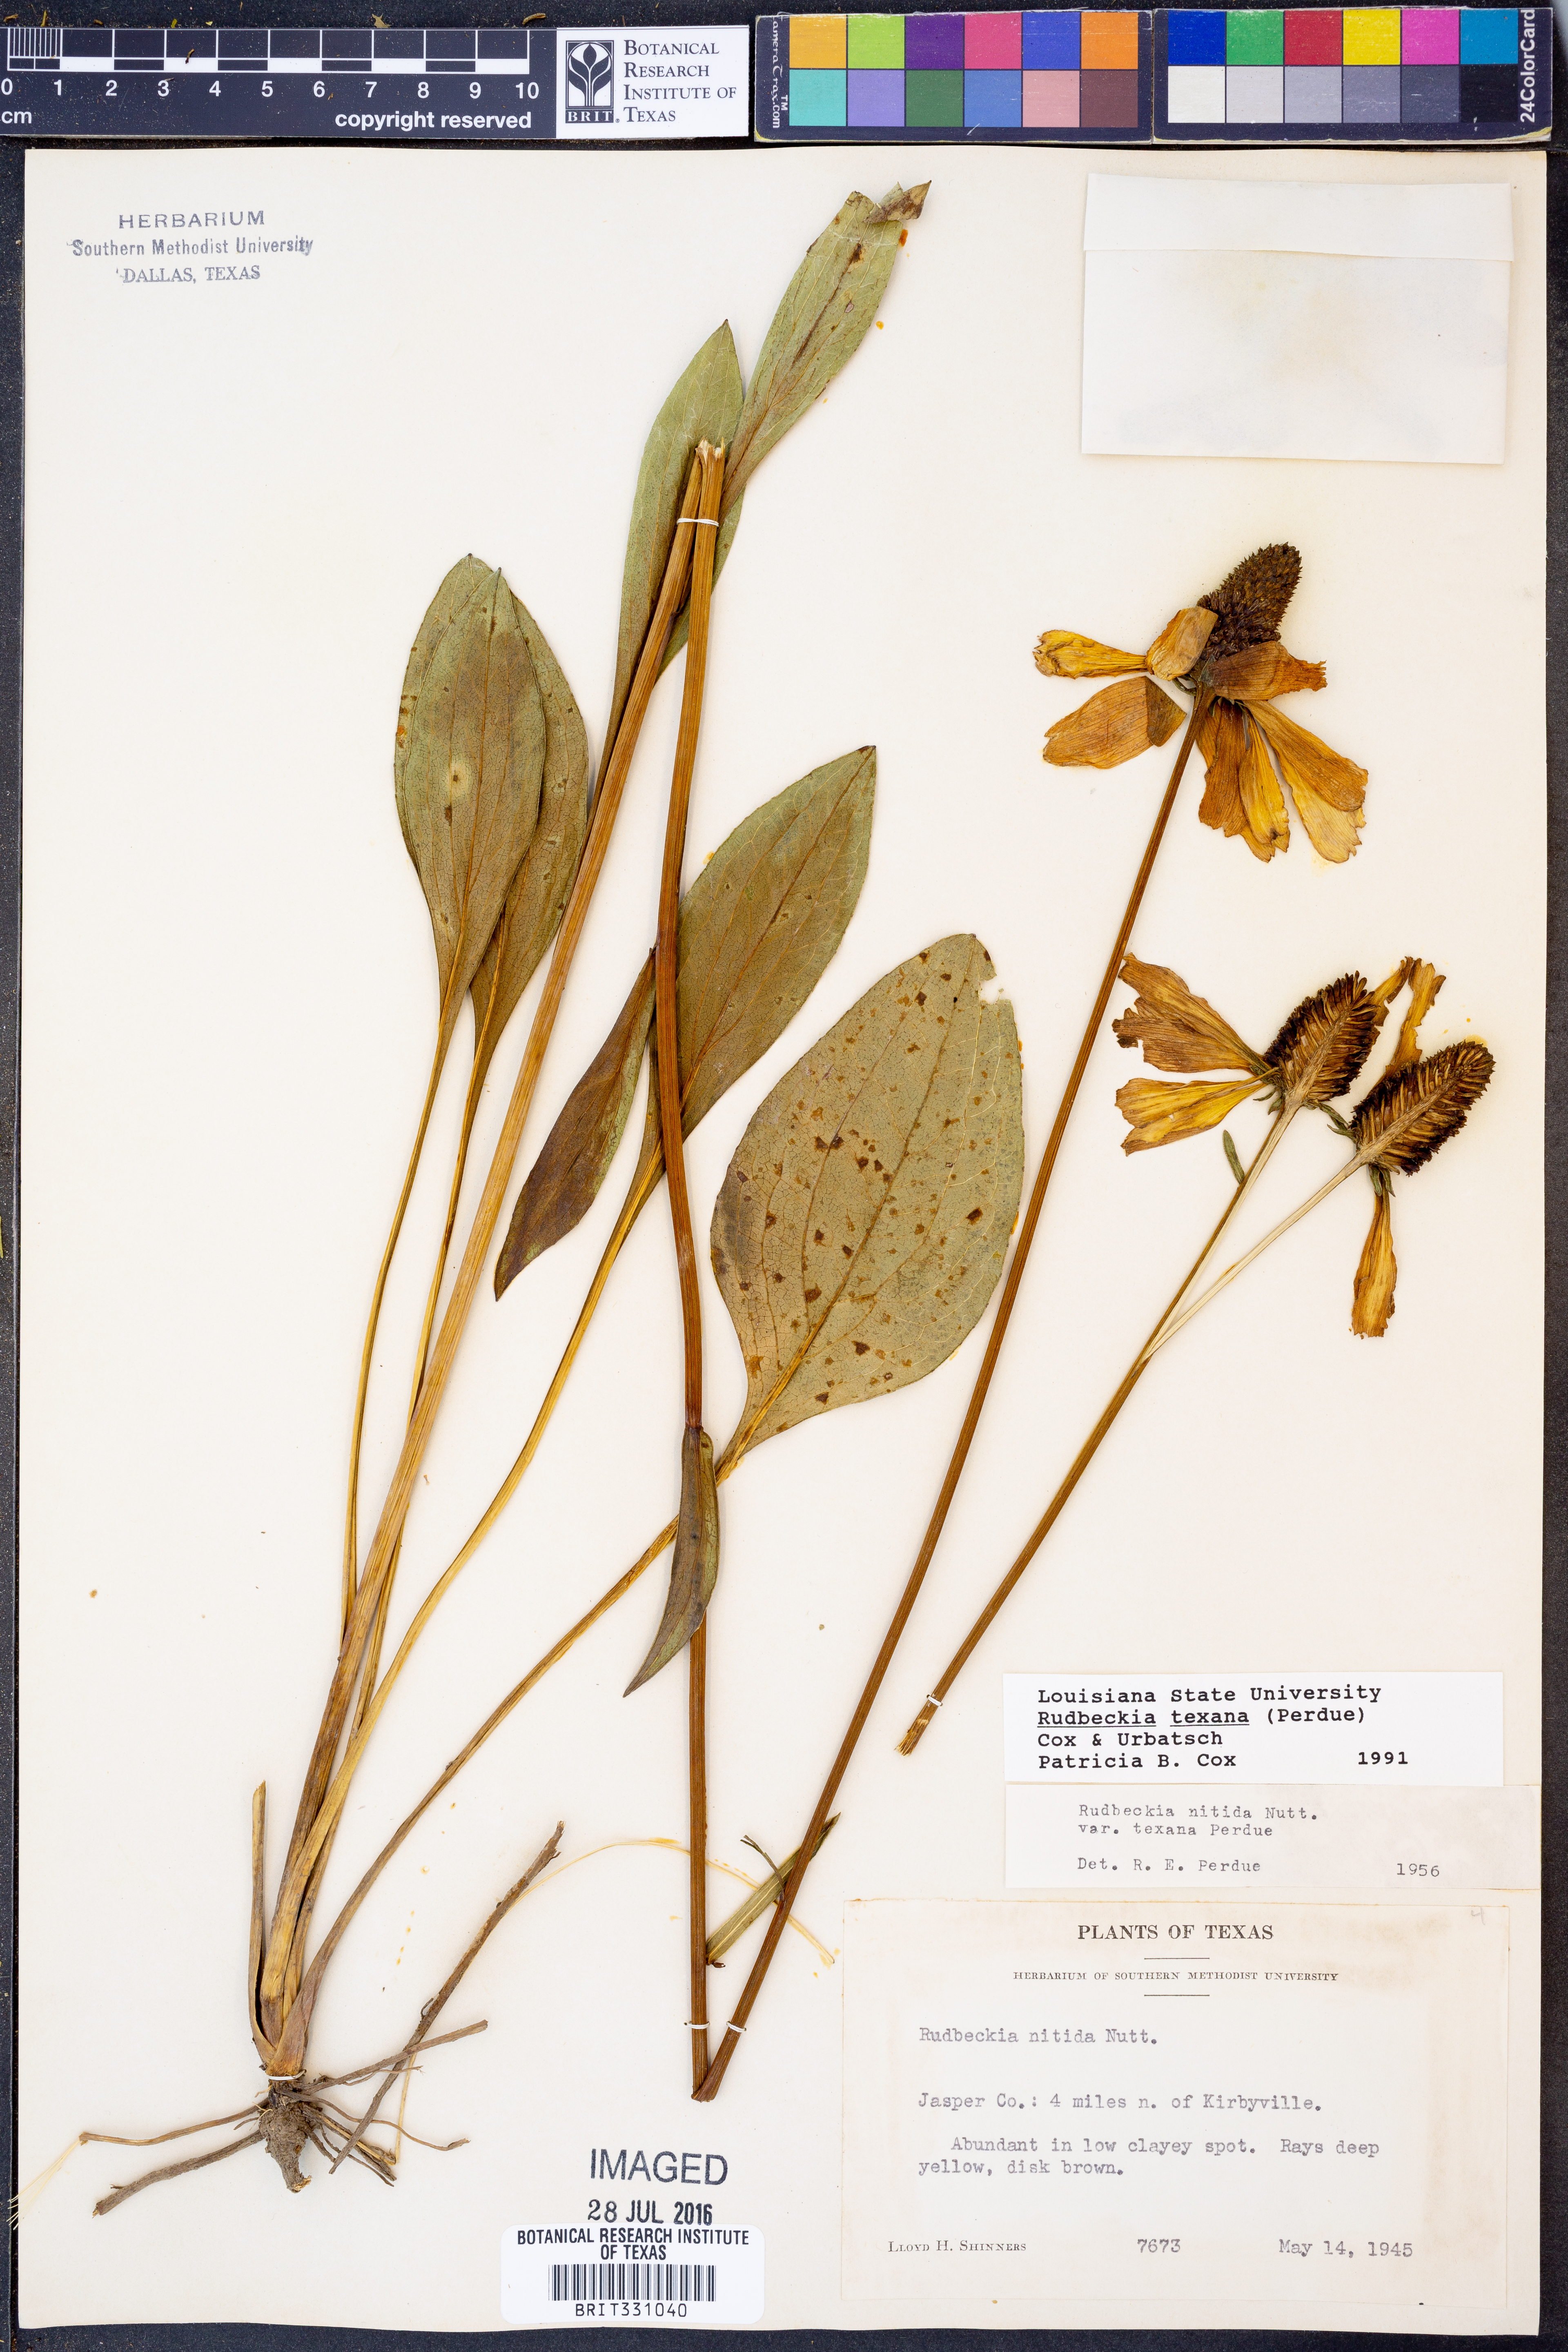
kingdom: Plantae
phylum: Tracheophyta
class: Magnoliopsida
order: Asterales
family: Asteraceae
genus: Rudbeckia
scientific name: Rudbeckia texana
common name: Texas coneflower
